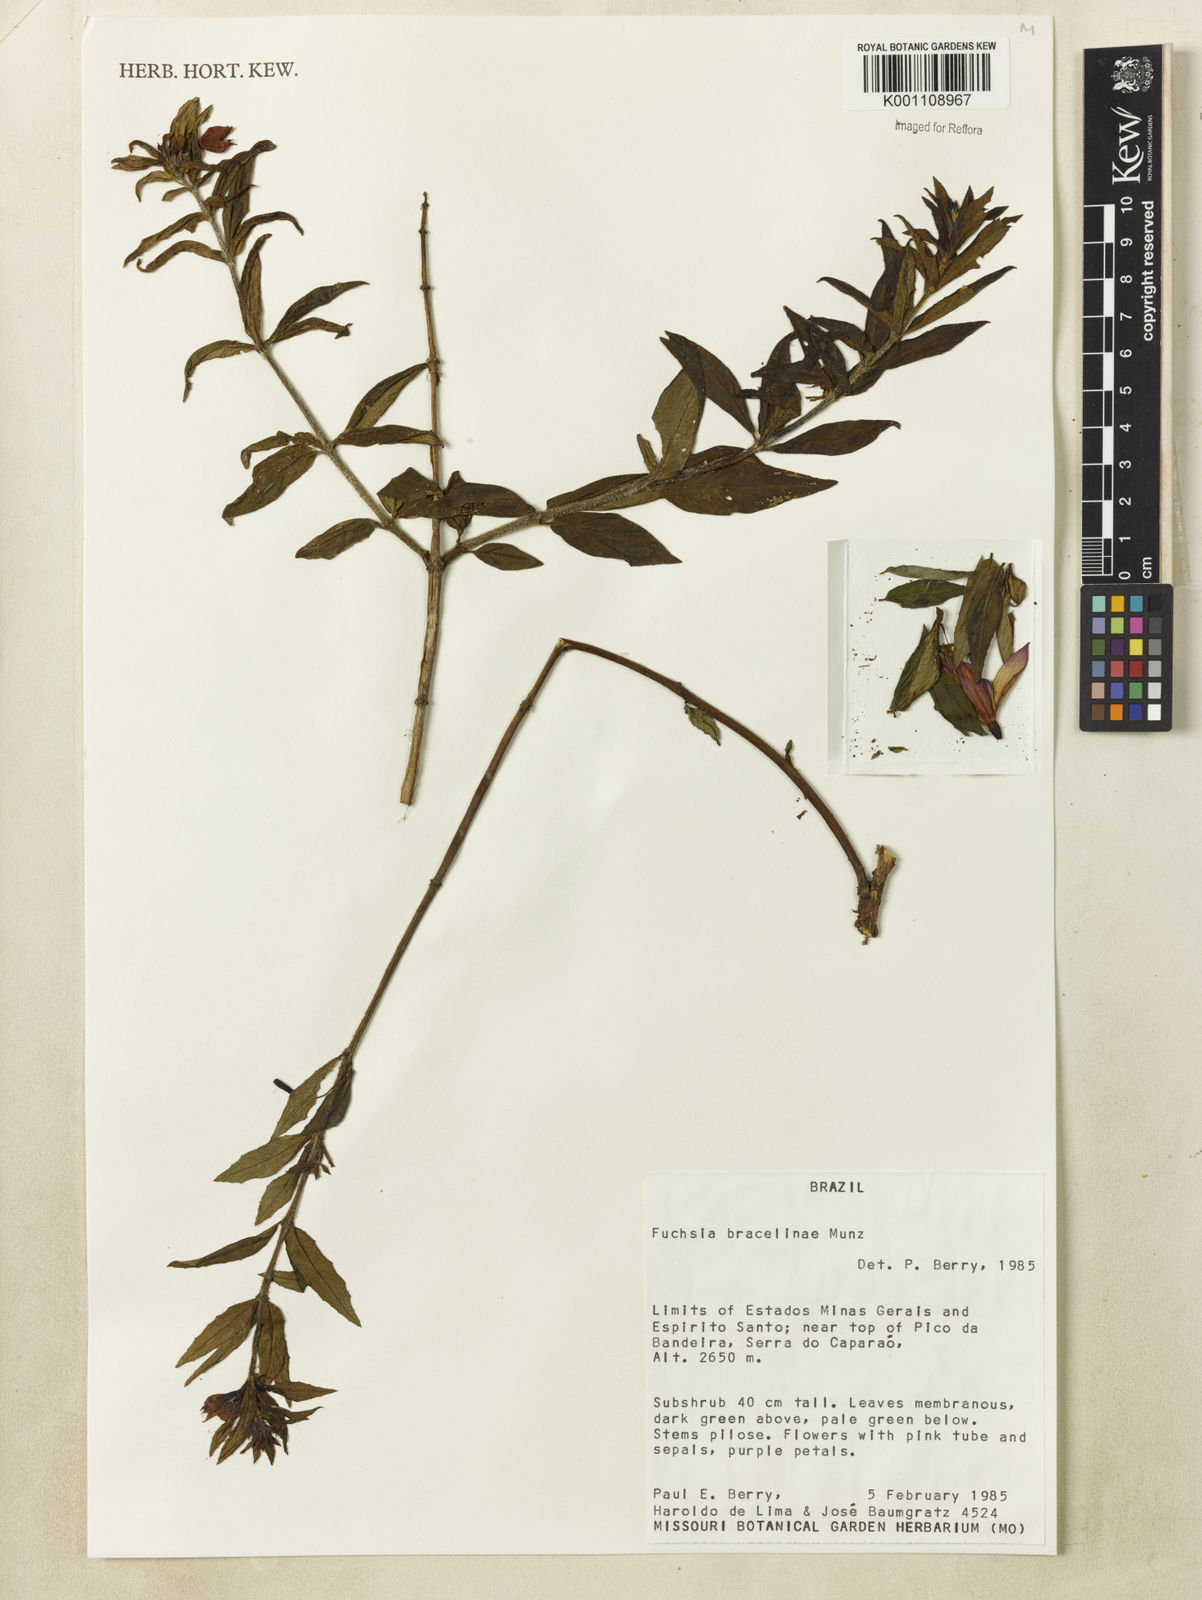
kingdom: Plantae
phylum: Tracheophyta
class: Magnoliopsida
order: Myrtales
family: Onagraceae
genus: Fuchsia
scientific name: Fuchsia bracelinae
